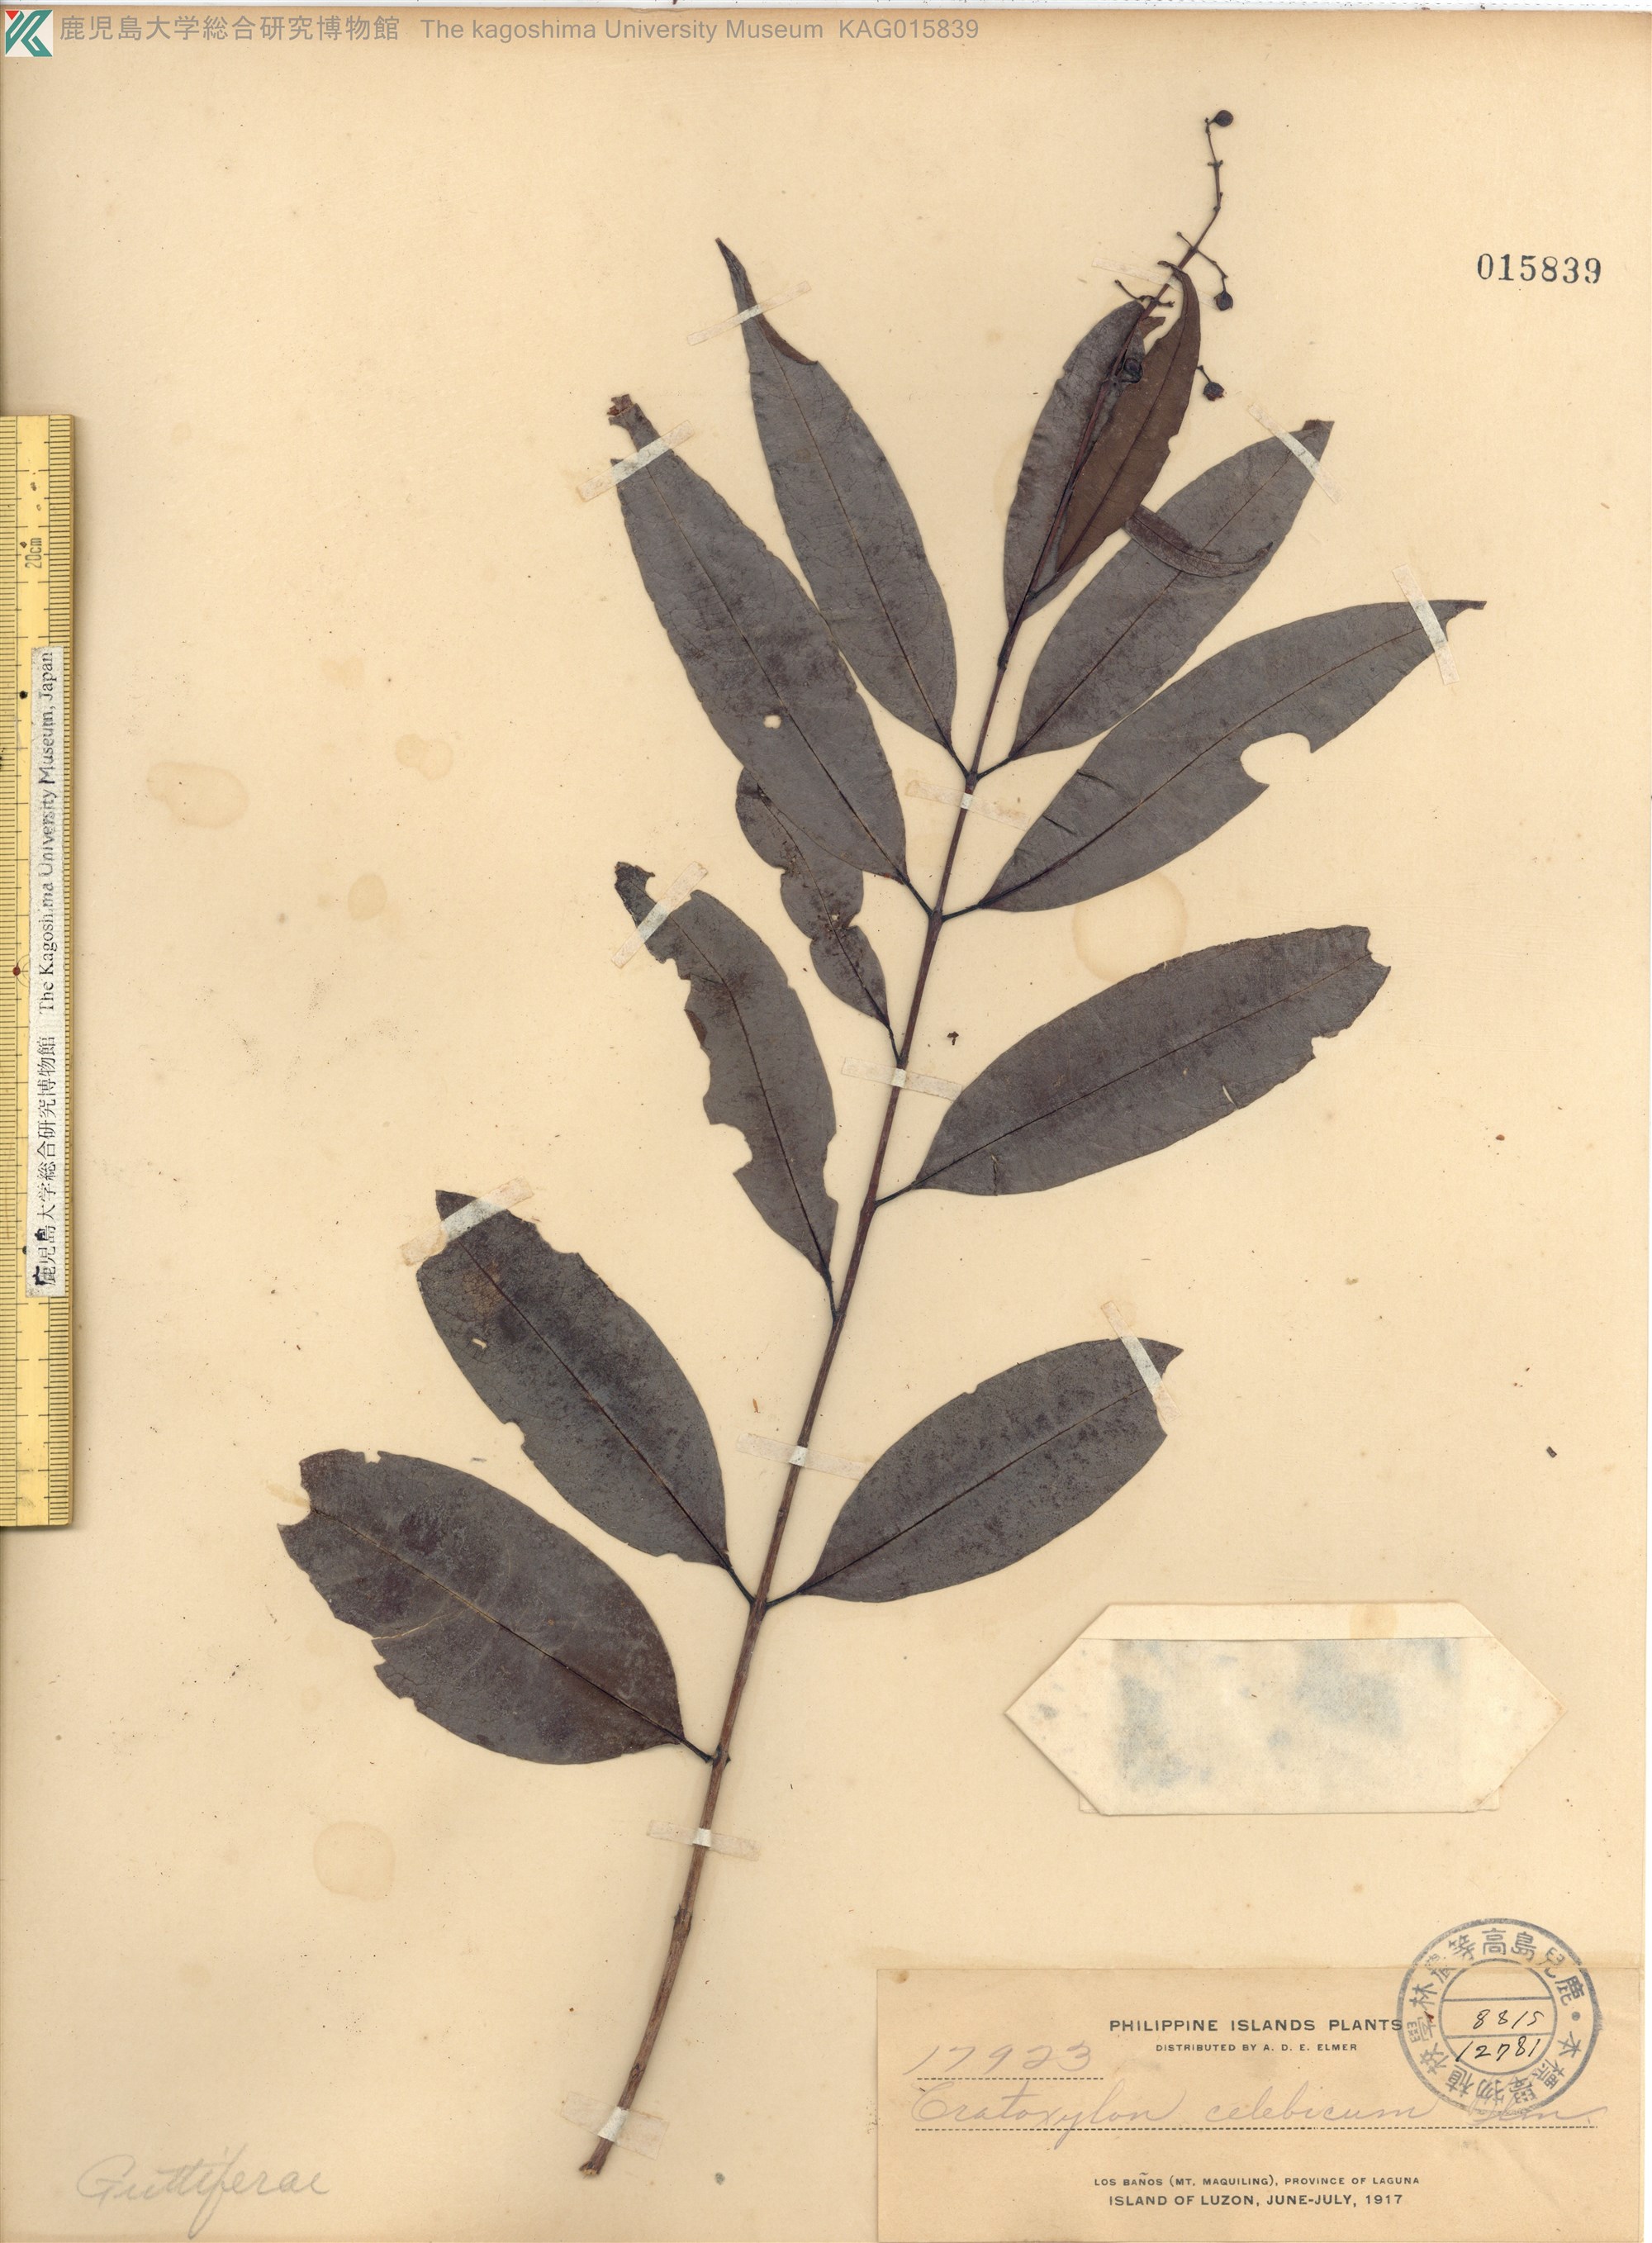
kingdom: Plantae
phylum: Tracheophyta
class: Magnoliopsida
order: Malpighiales
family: Hypericaceae
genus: Cratoxylum
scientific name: Cratoxylum sumatranum
